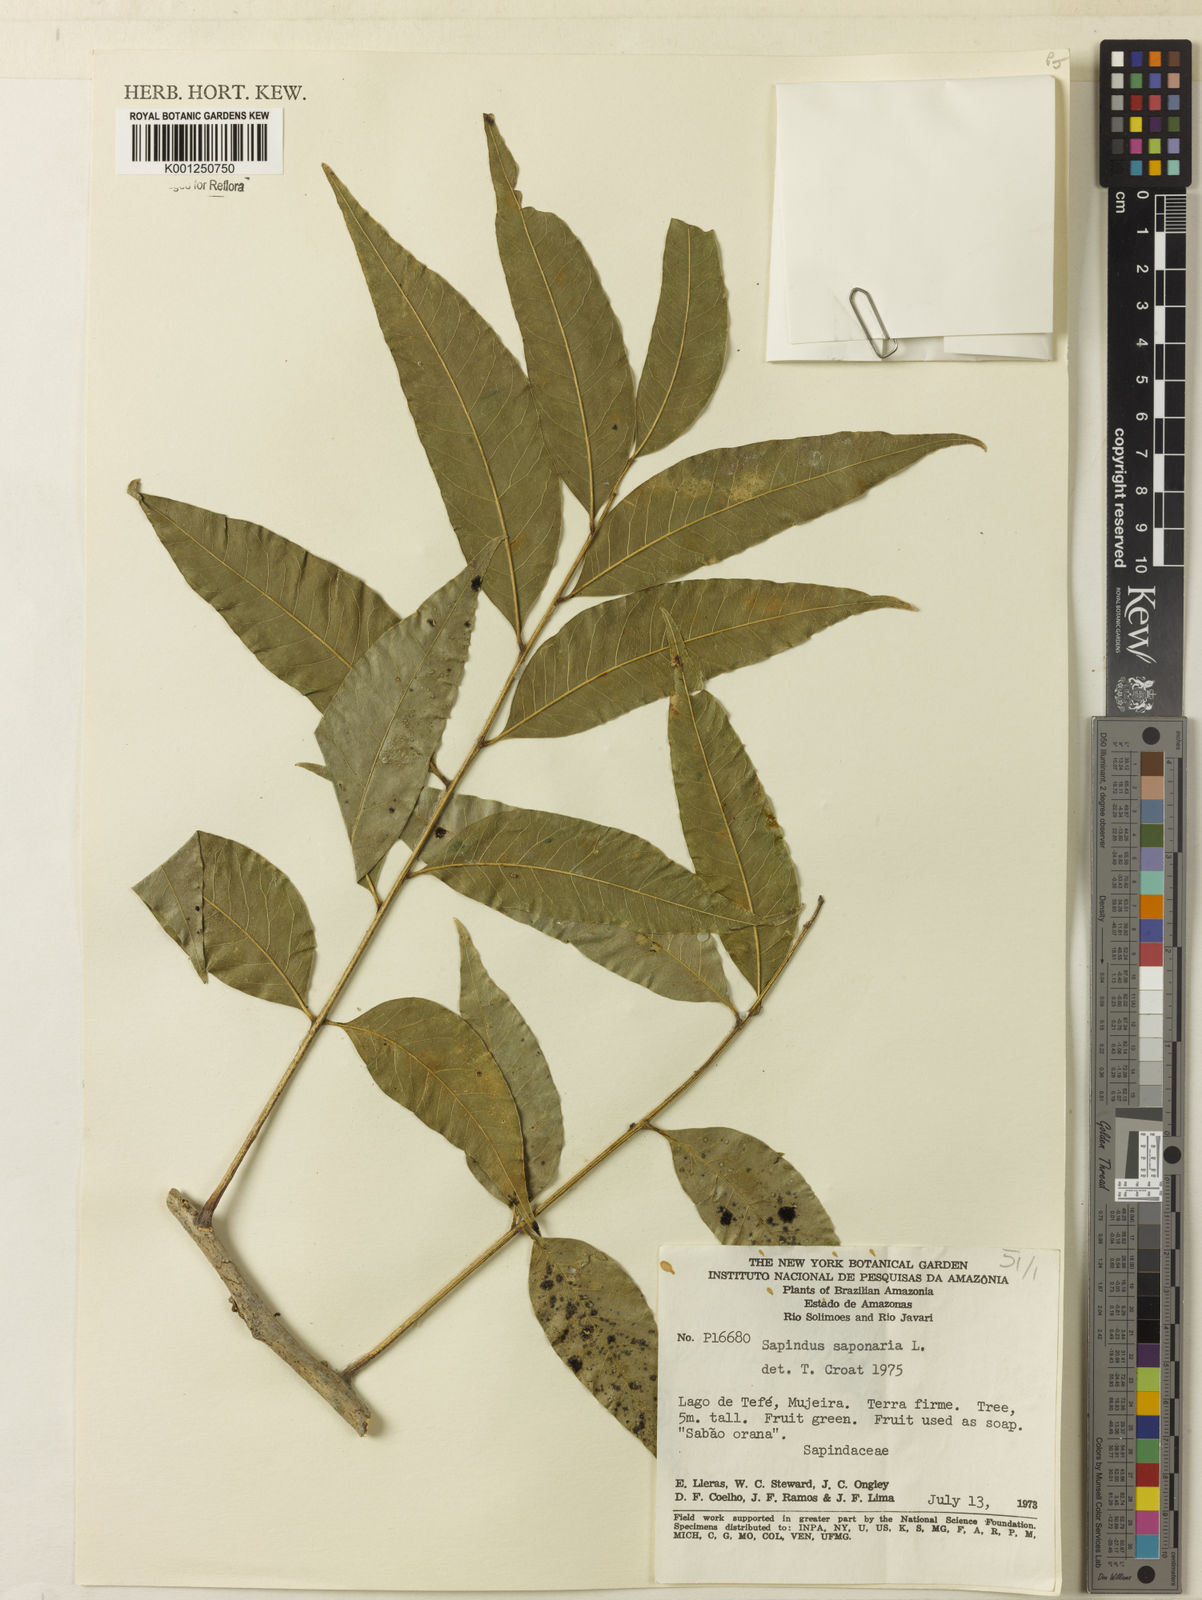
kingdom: Plantae
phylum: Tracheophyta
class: Magnoliopsida
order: Sapindales
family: Sapindaceae
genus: Sapindus
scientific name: Sapindus
